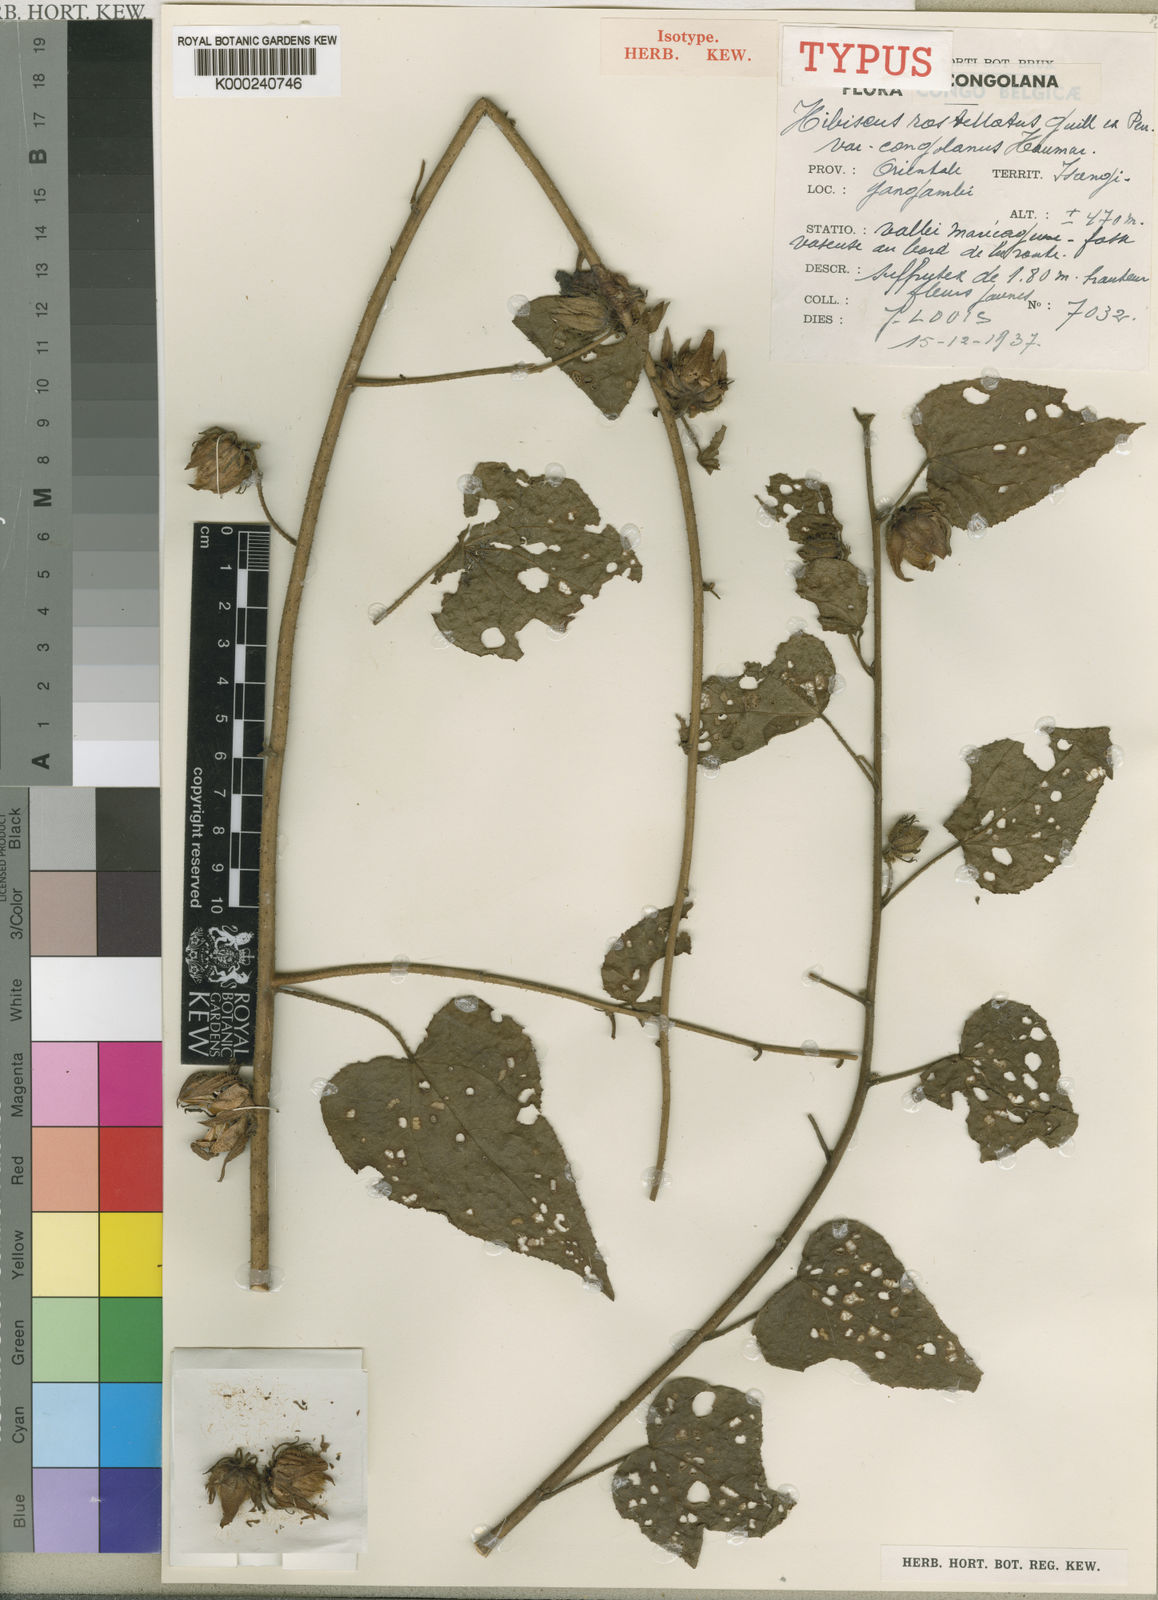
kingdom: Plantae
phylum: Tracheophyta
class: Magnoliopsida
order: Malvales
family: Malvaceae
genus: Hibiscus
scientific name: Hibiscus rostellatus
